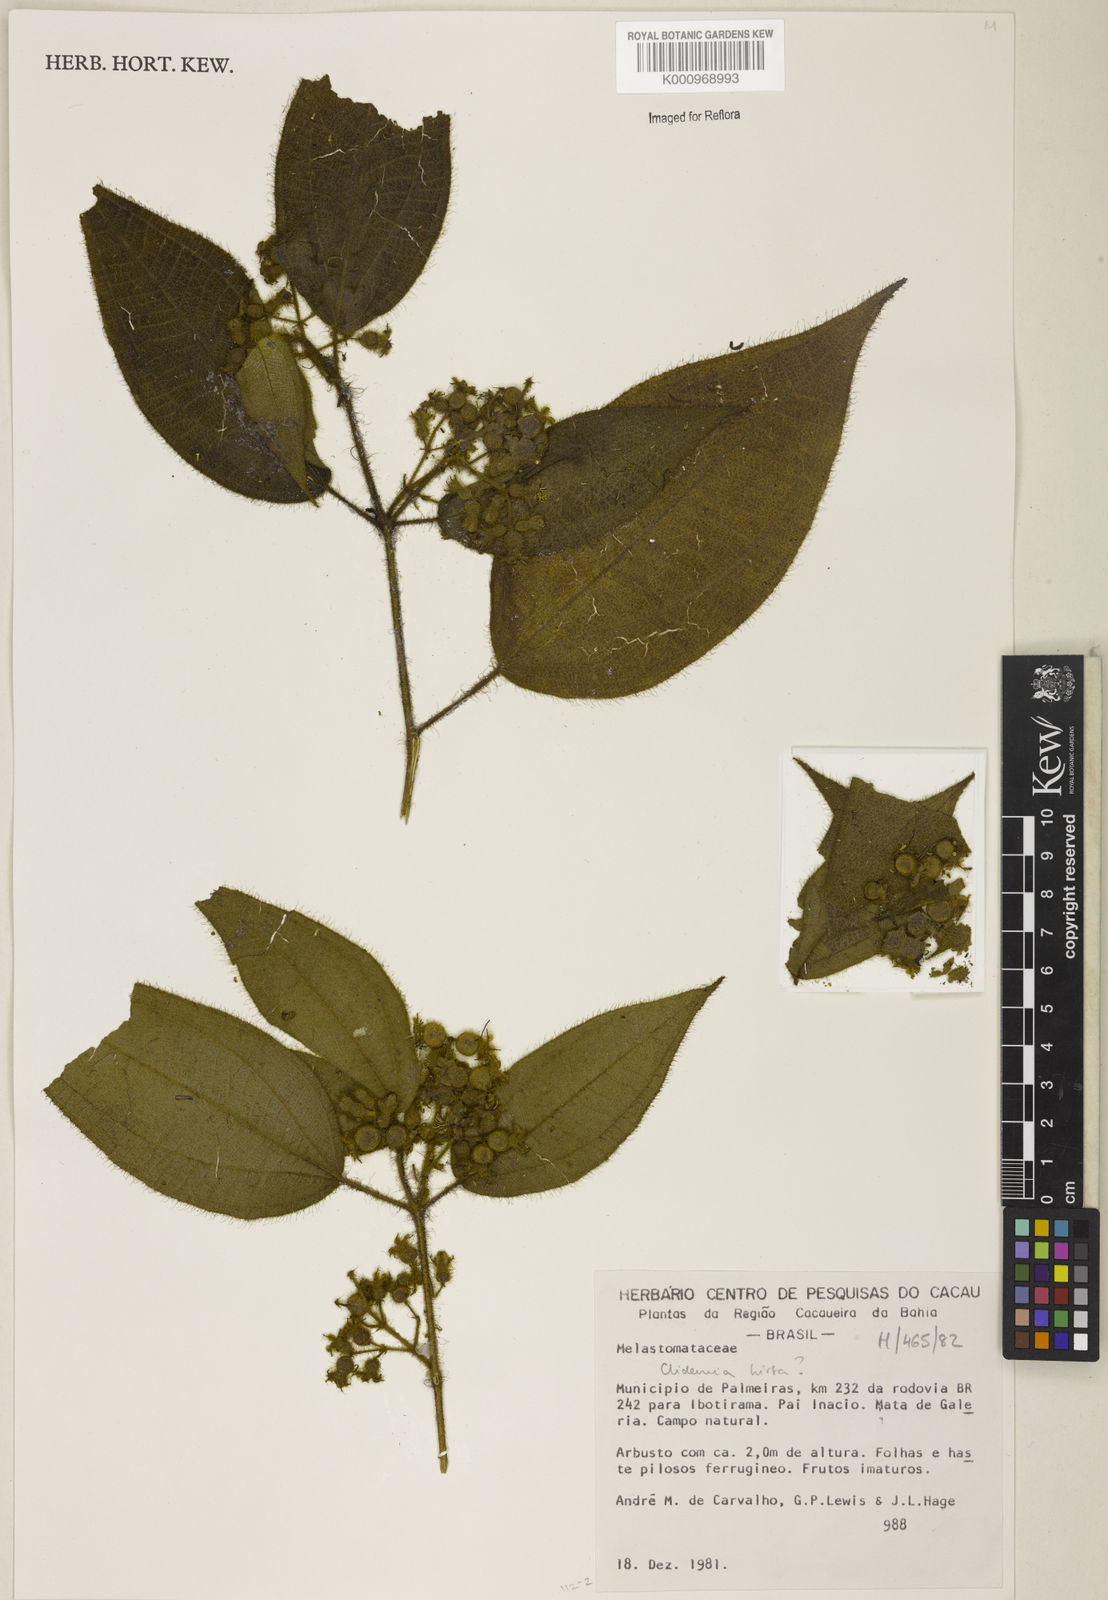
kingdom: Plantae
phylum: Tracheophyta
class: Magnoliopsida
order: Myrtales
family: Melastomataceae
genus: Miconia
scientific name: Miconia crenata
